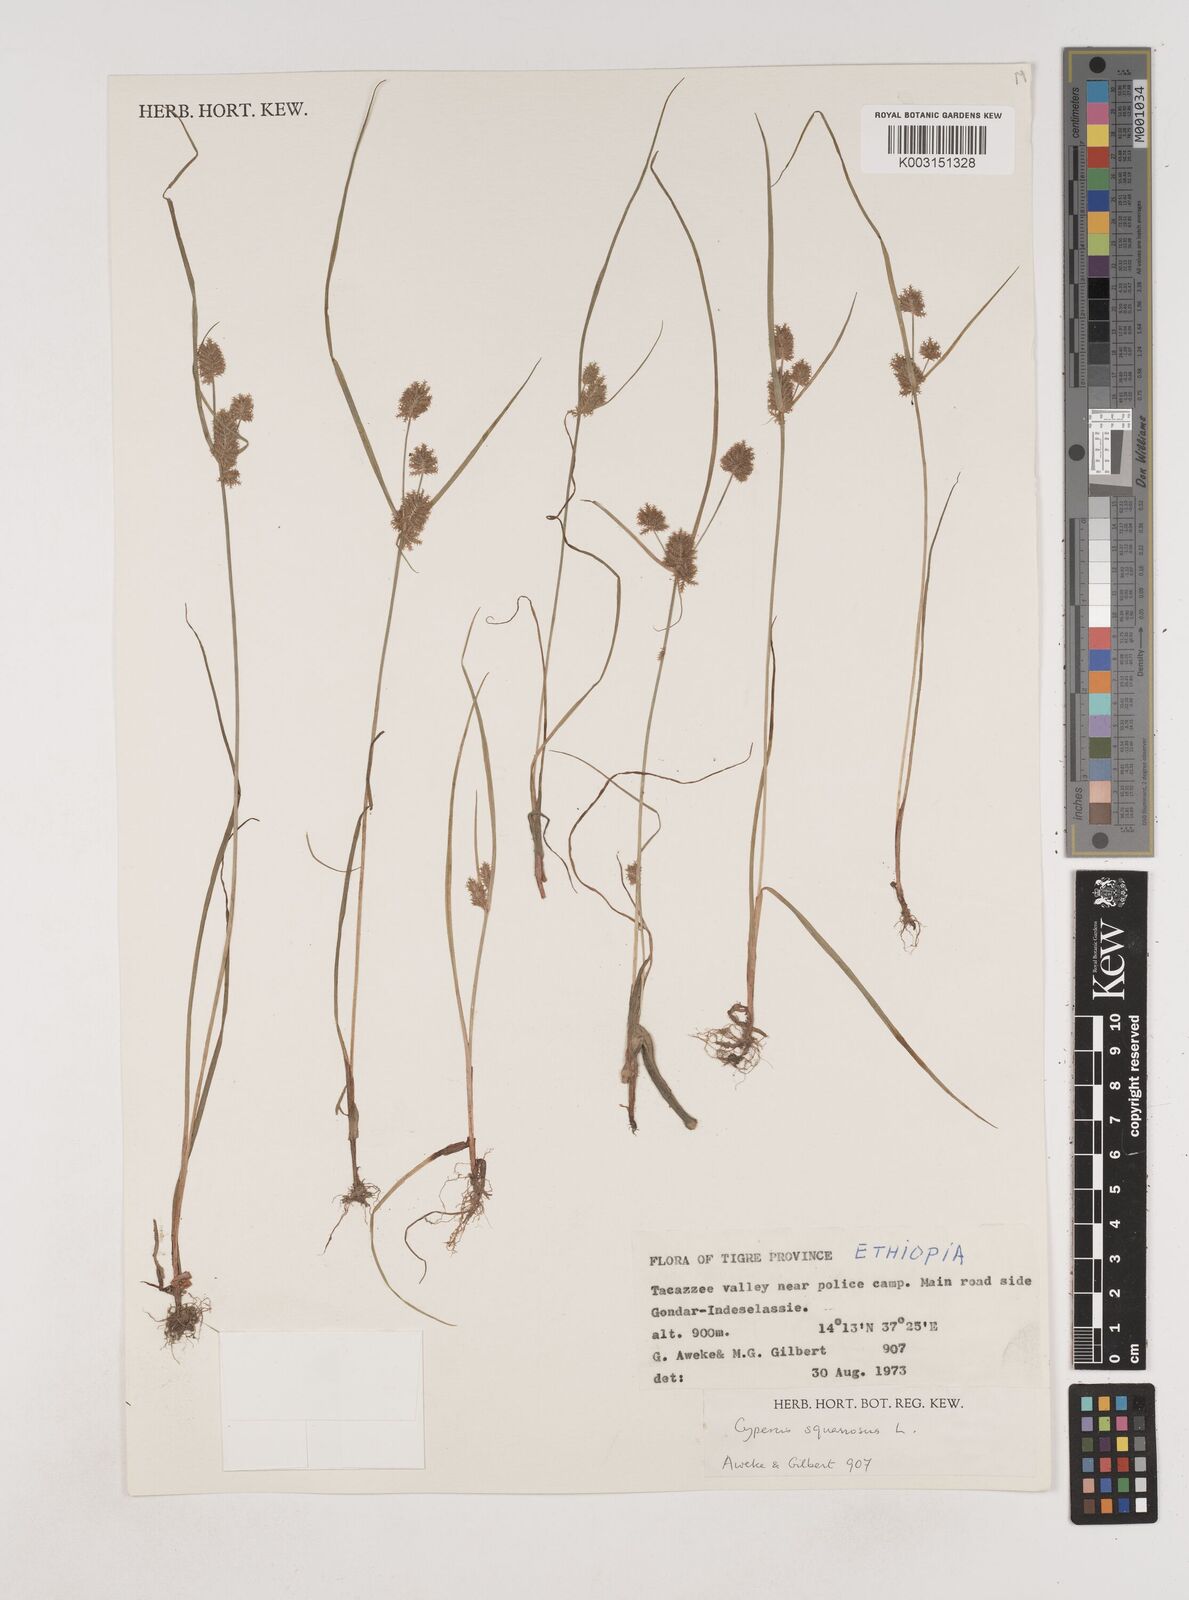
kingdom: Plantae
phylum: Tracheophyta
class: Liliopsida
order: Poales
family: Cyperaceae
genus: Cyperus
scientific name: Cyperus squarrosus
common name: Awned cyperus
